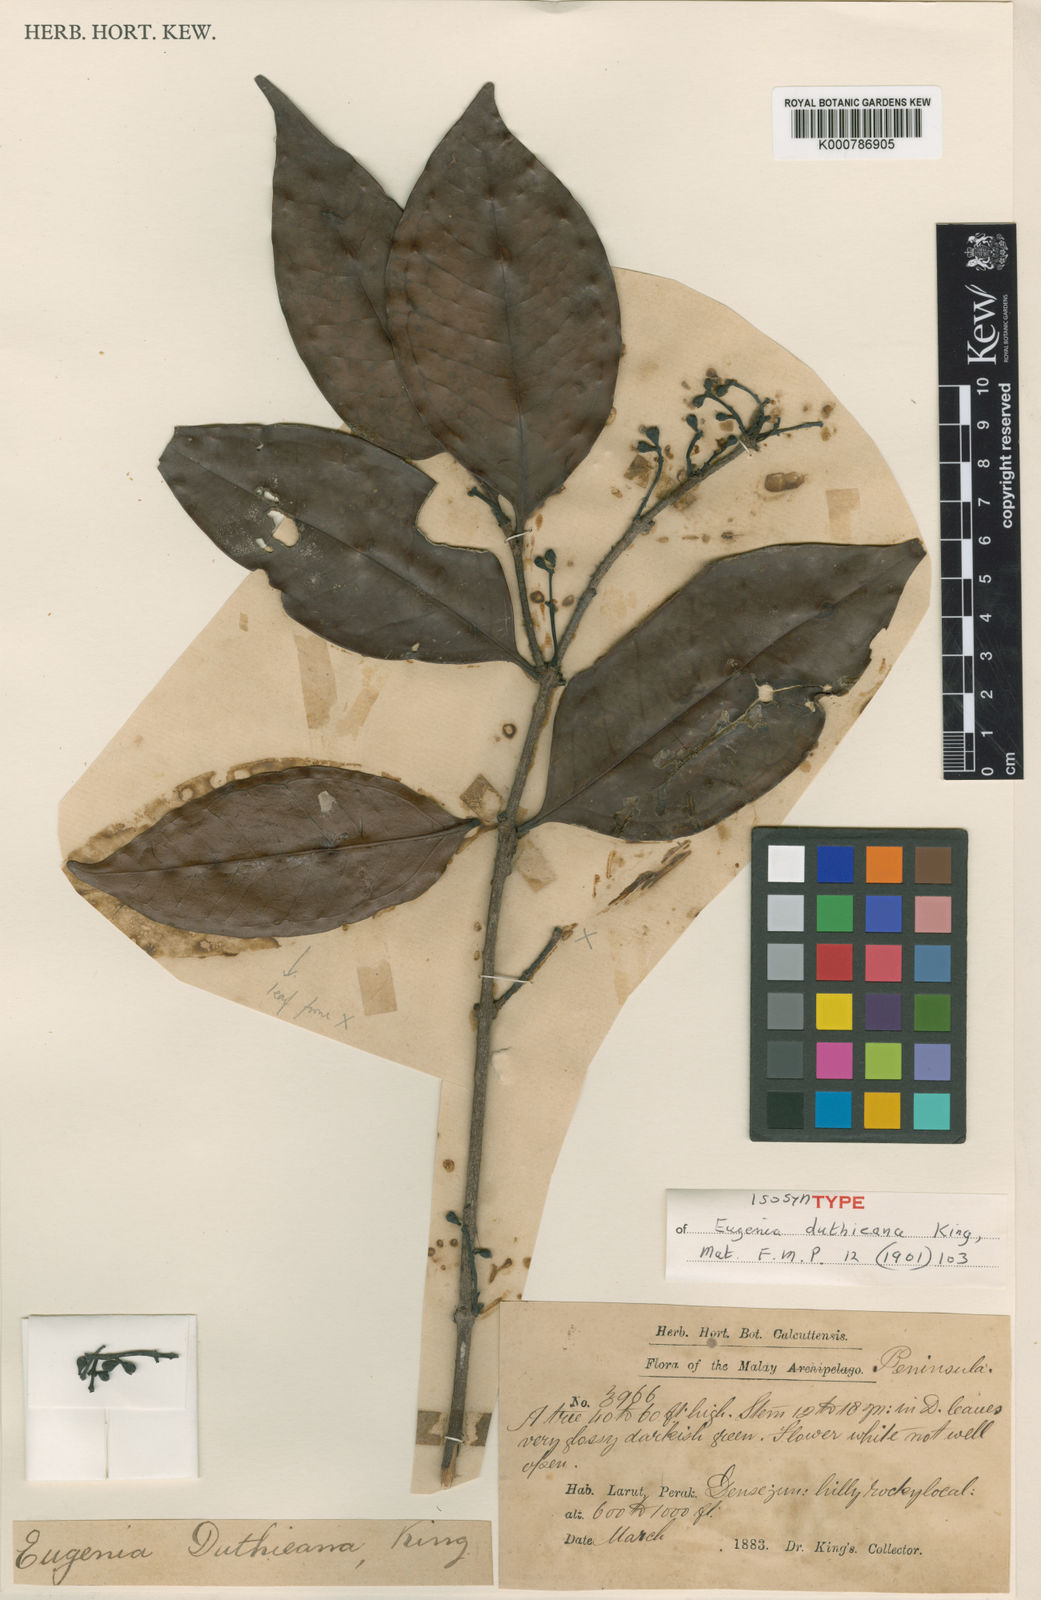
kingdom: Plantae
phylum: Tracheophyta
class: Magnoliopsida
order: Myrtales
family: Myrtaceae
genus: Syzygium
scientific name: Syzygium duthieanum
